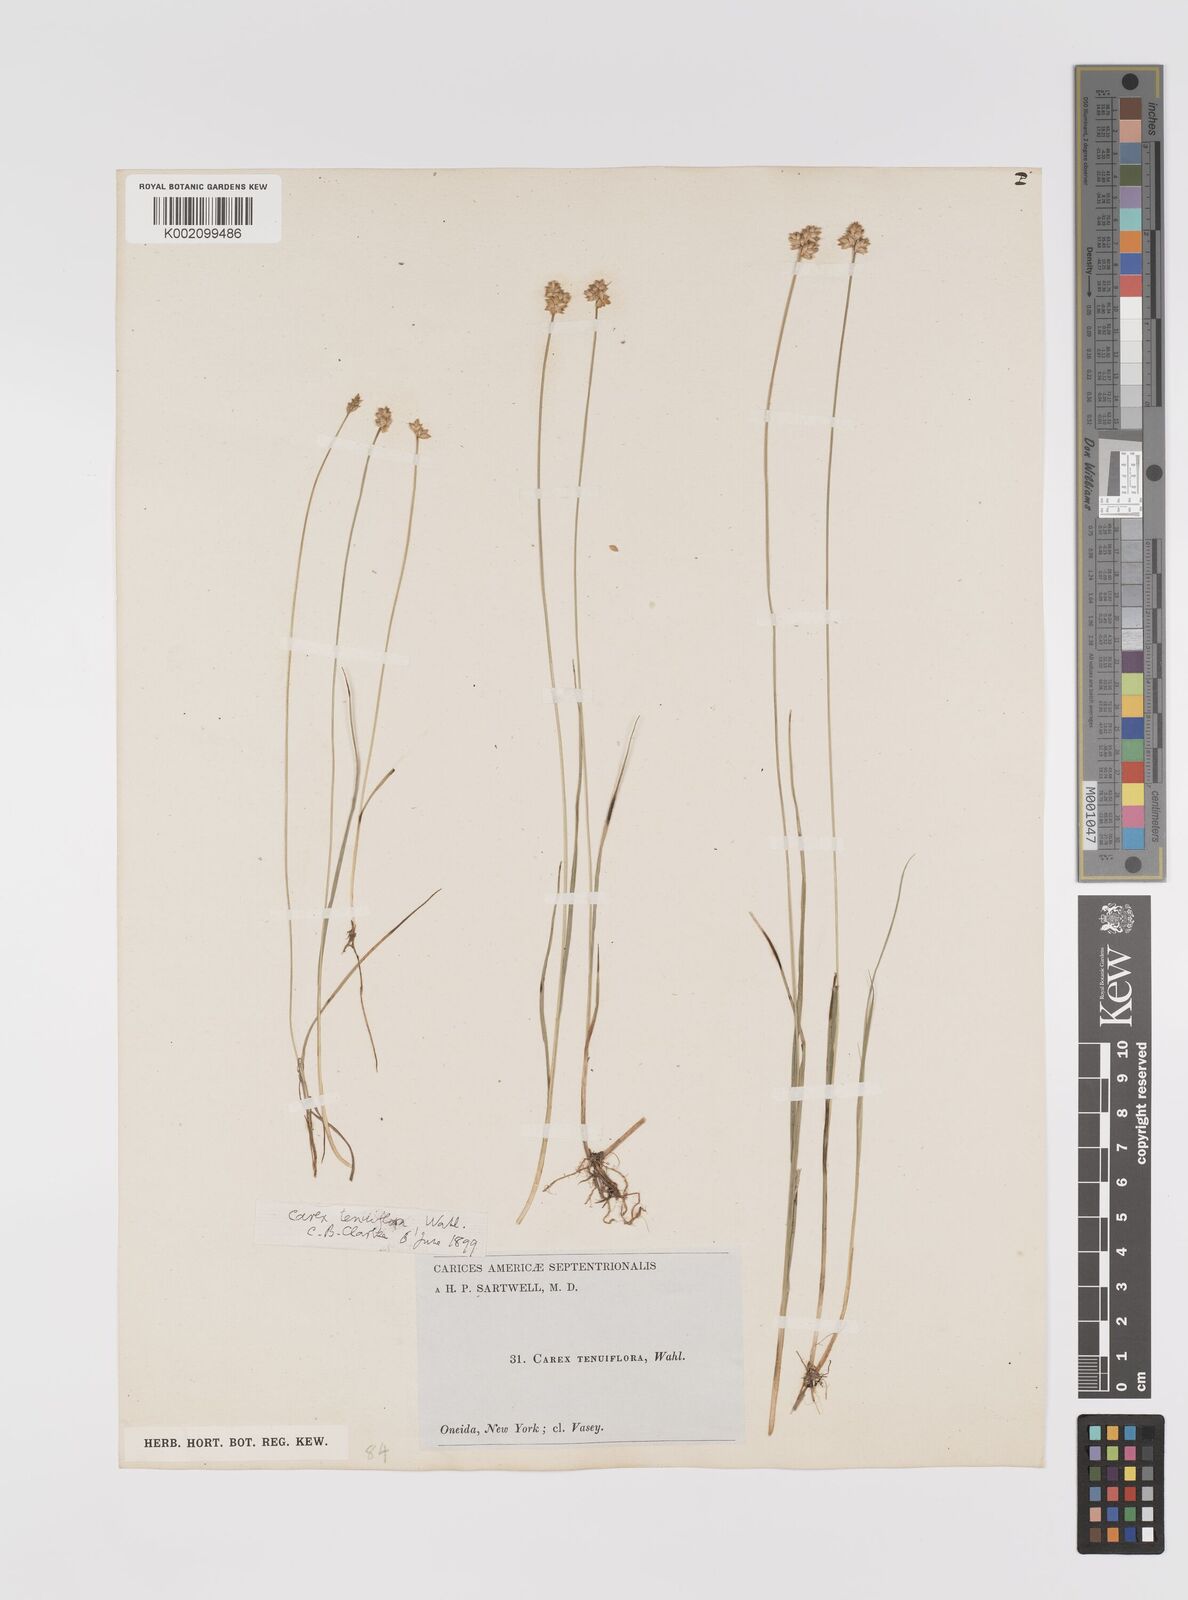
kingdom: Plantae
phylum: Tracheophyta
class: Liliopsida
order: Poales
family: Cyperaceae
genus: Carex
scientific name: Carex tenuiflora
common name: Sparse-flowered sedge
